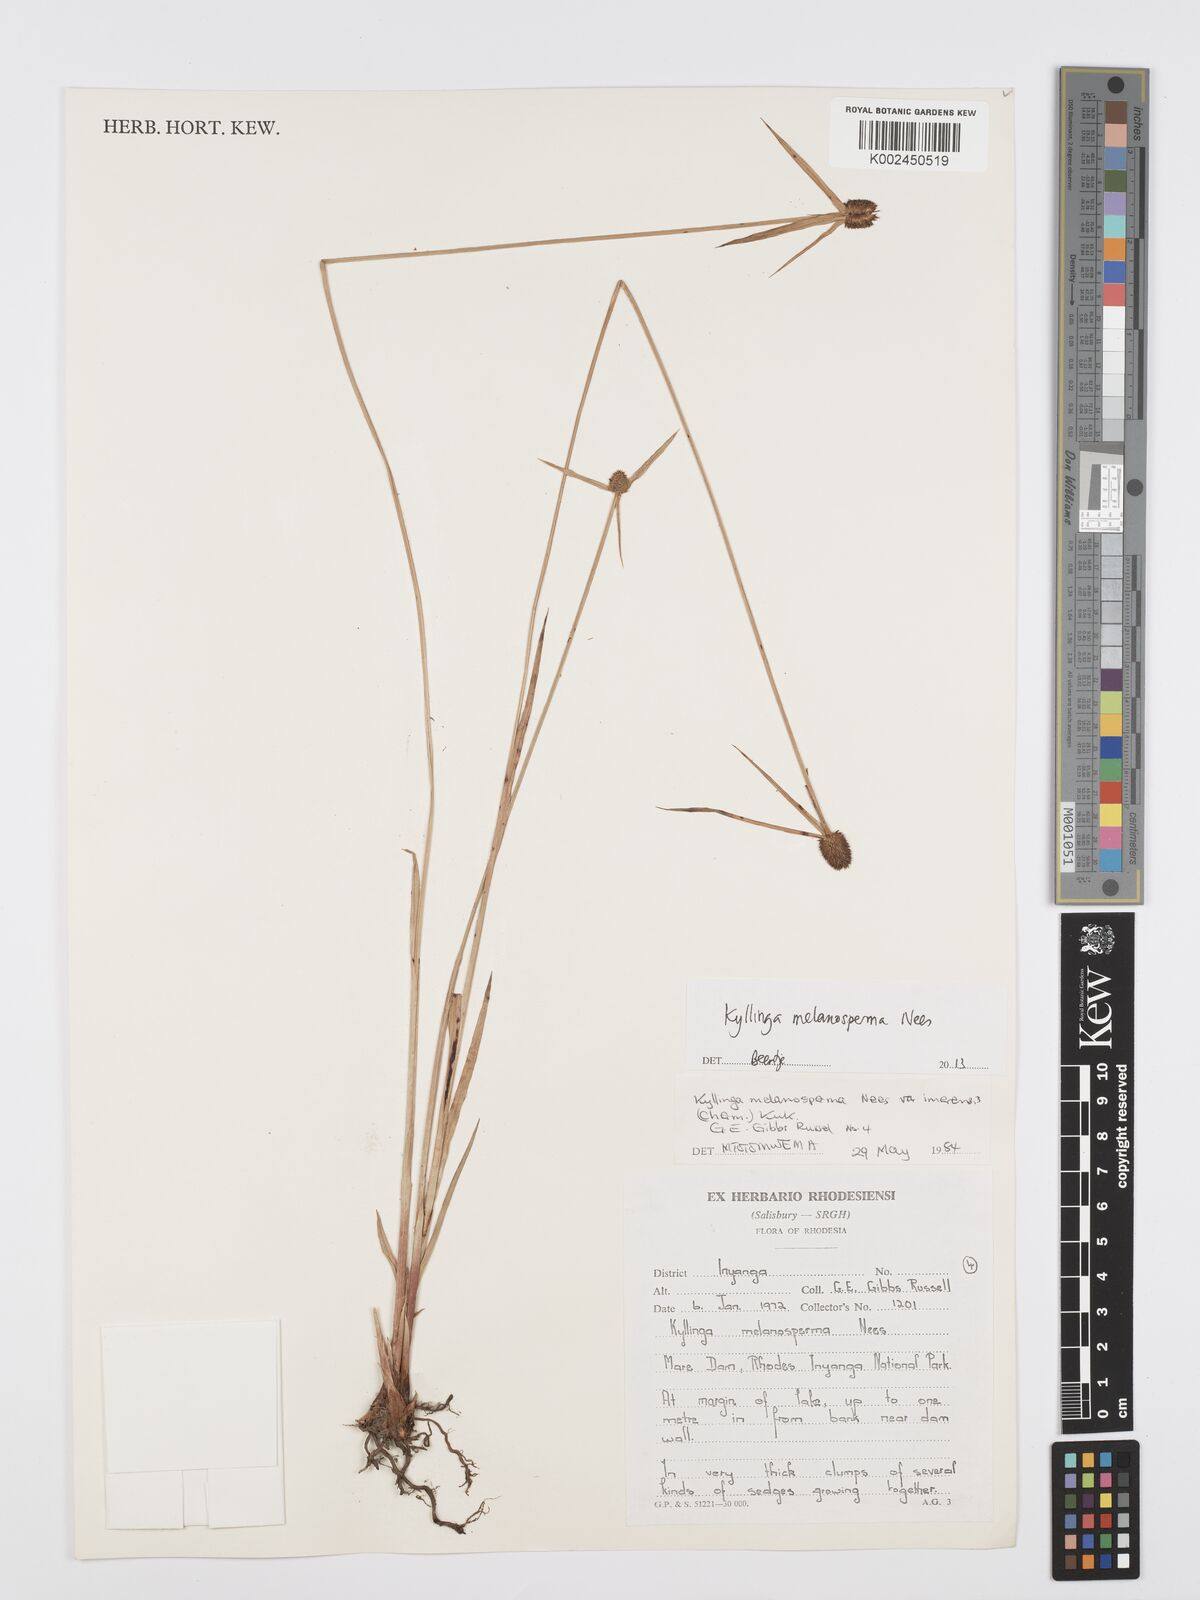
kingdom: Plantae
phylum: Tracheophyta
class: Liliopsida
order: Poales
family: Cyperaceae
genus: Cyperus
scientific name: Cyperus melanospermus
